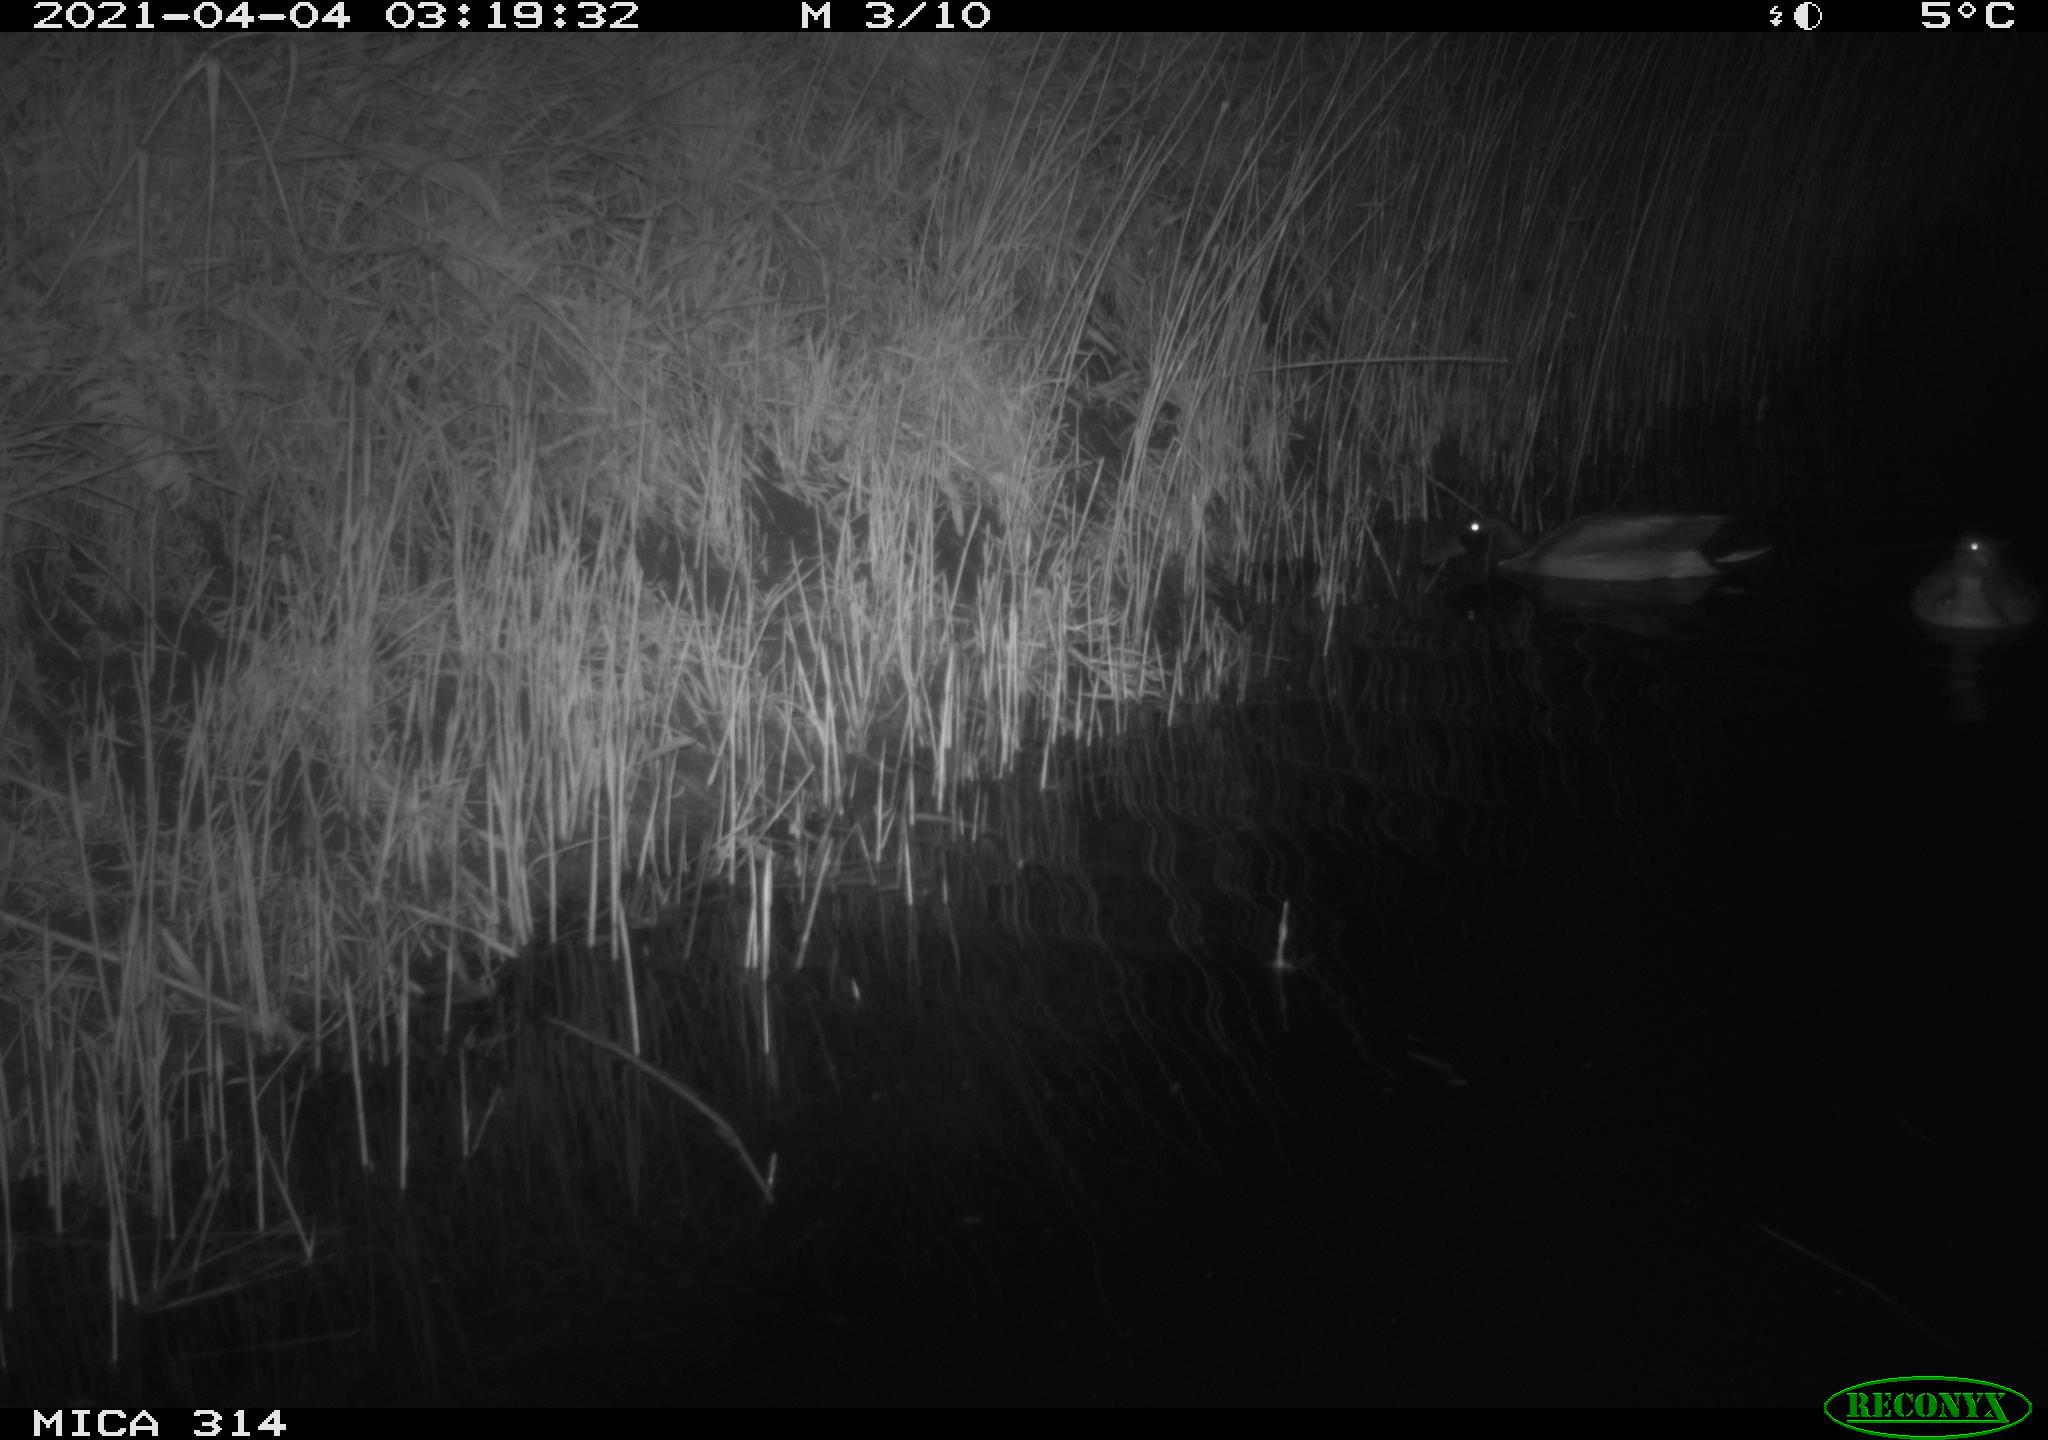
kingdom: Animalia
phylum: Chordata
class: Aves
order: Anseriformes
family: Anatidae
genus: Anas
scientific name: Anas platyrhynchos
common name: Mallard
